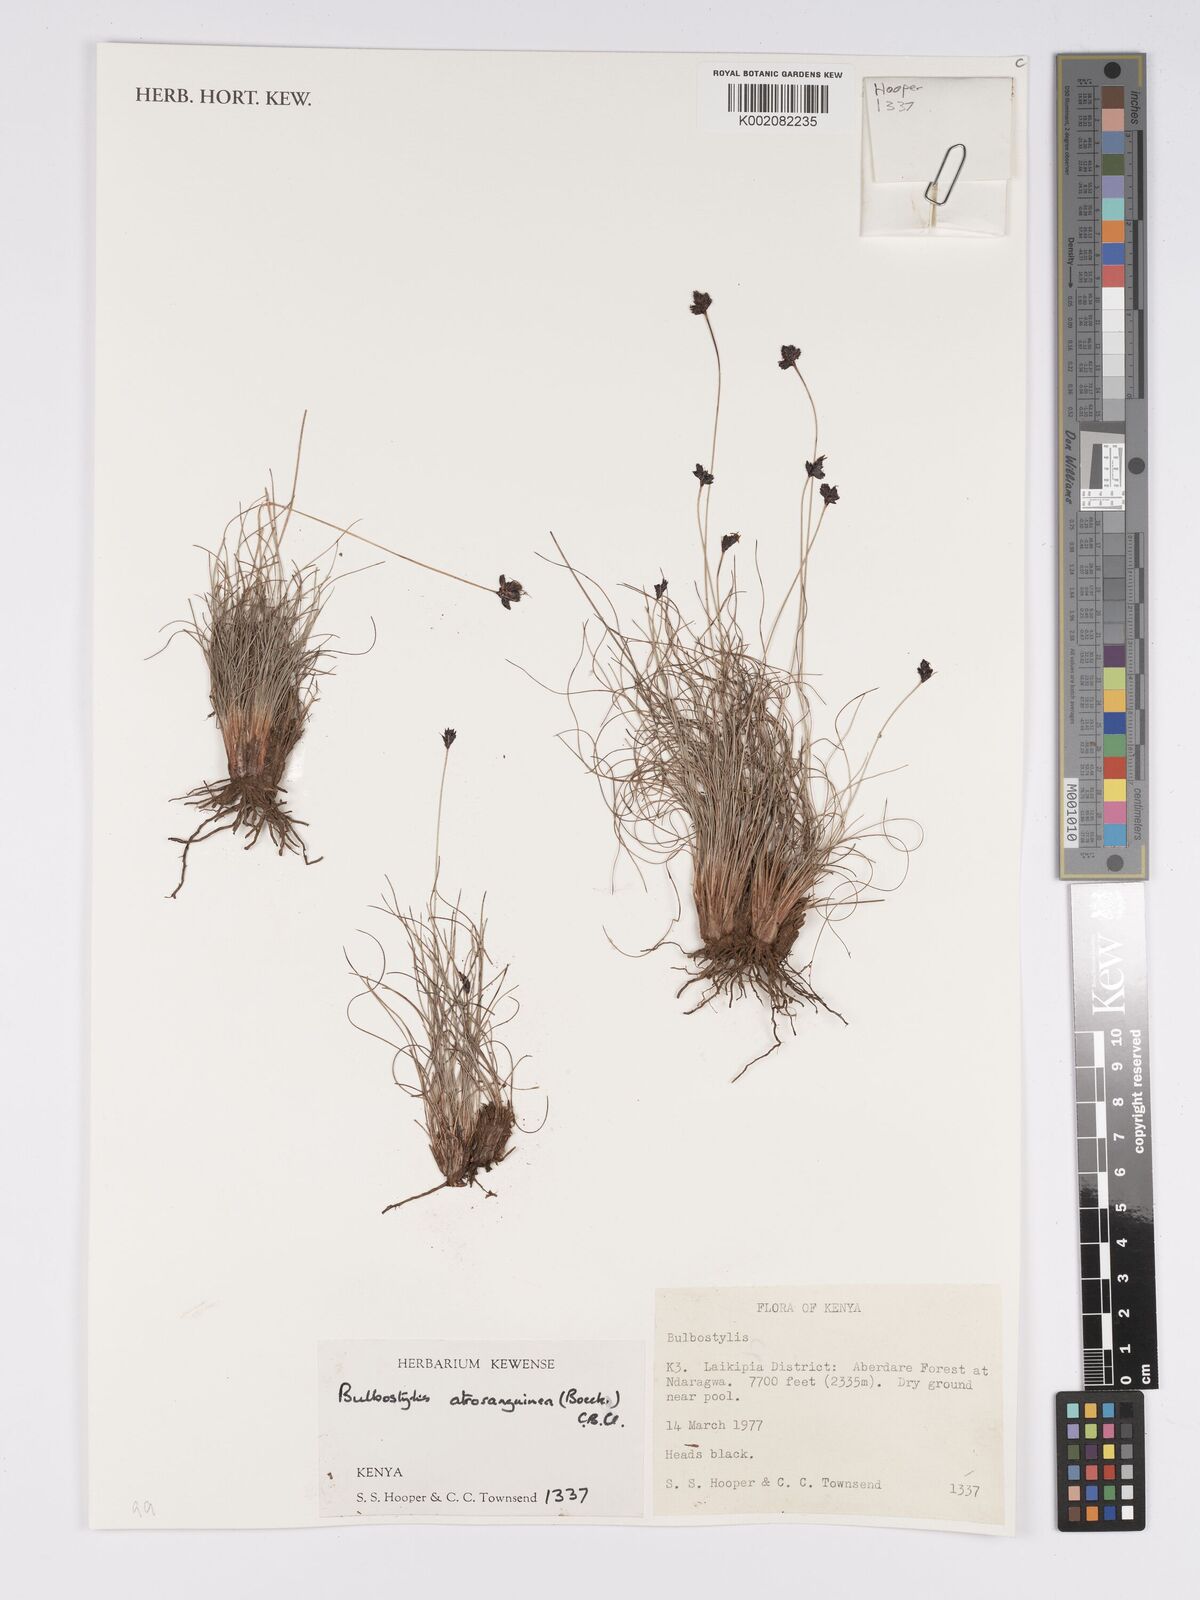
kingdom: Plantae
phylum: Tracheophyta
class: Liliopsida
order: Poales
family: Cyperaceae
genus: Bulbostylis
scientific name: Bulbostylis atrosanguinea
